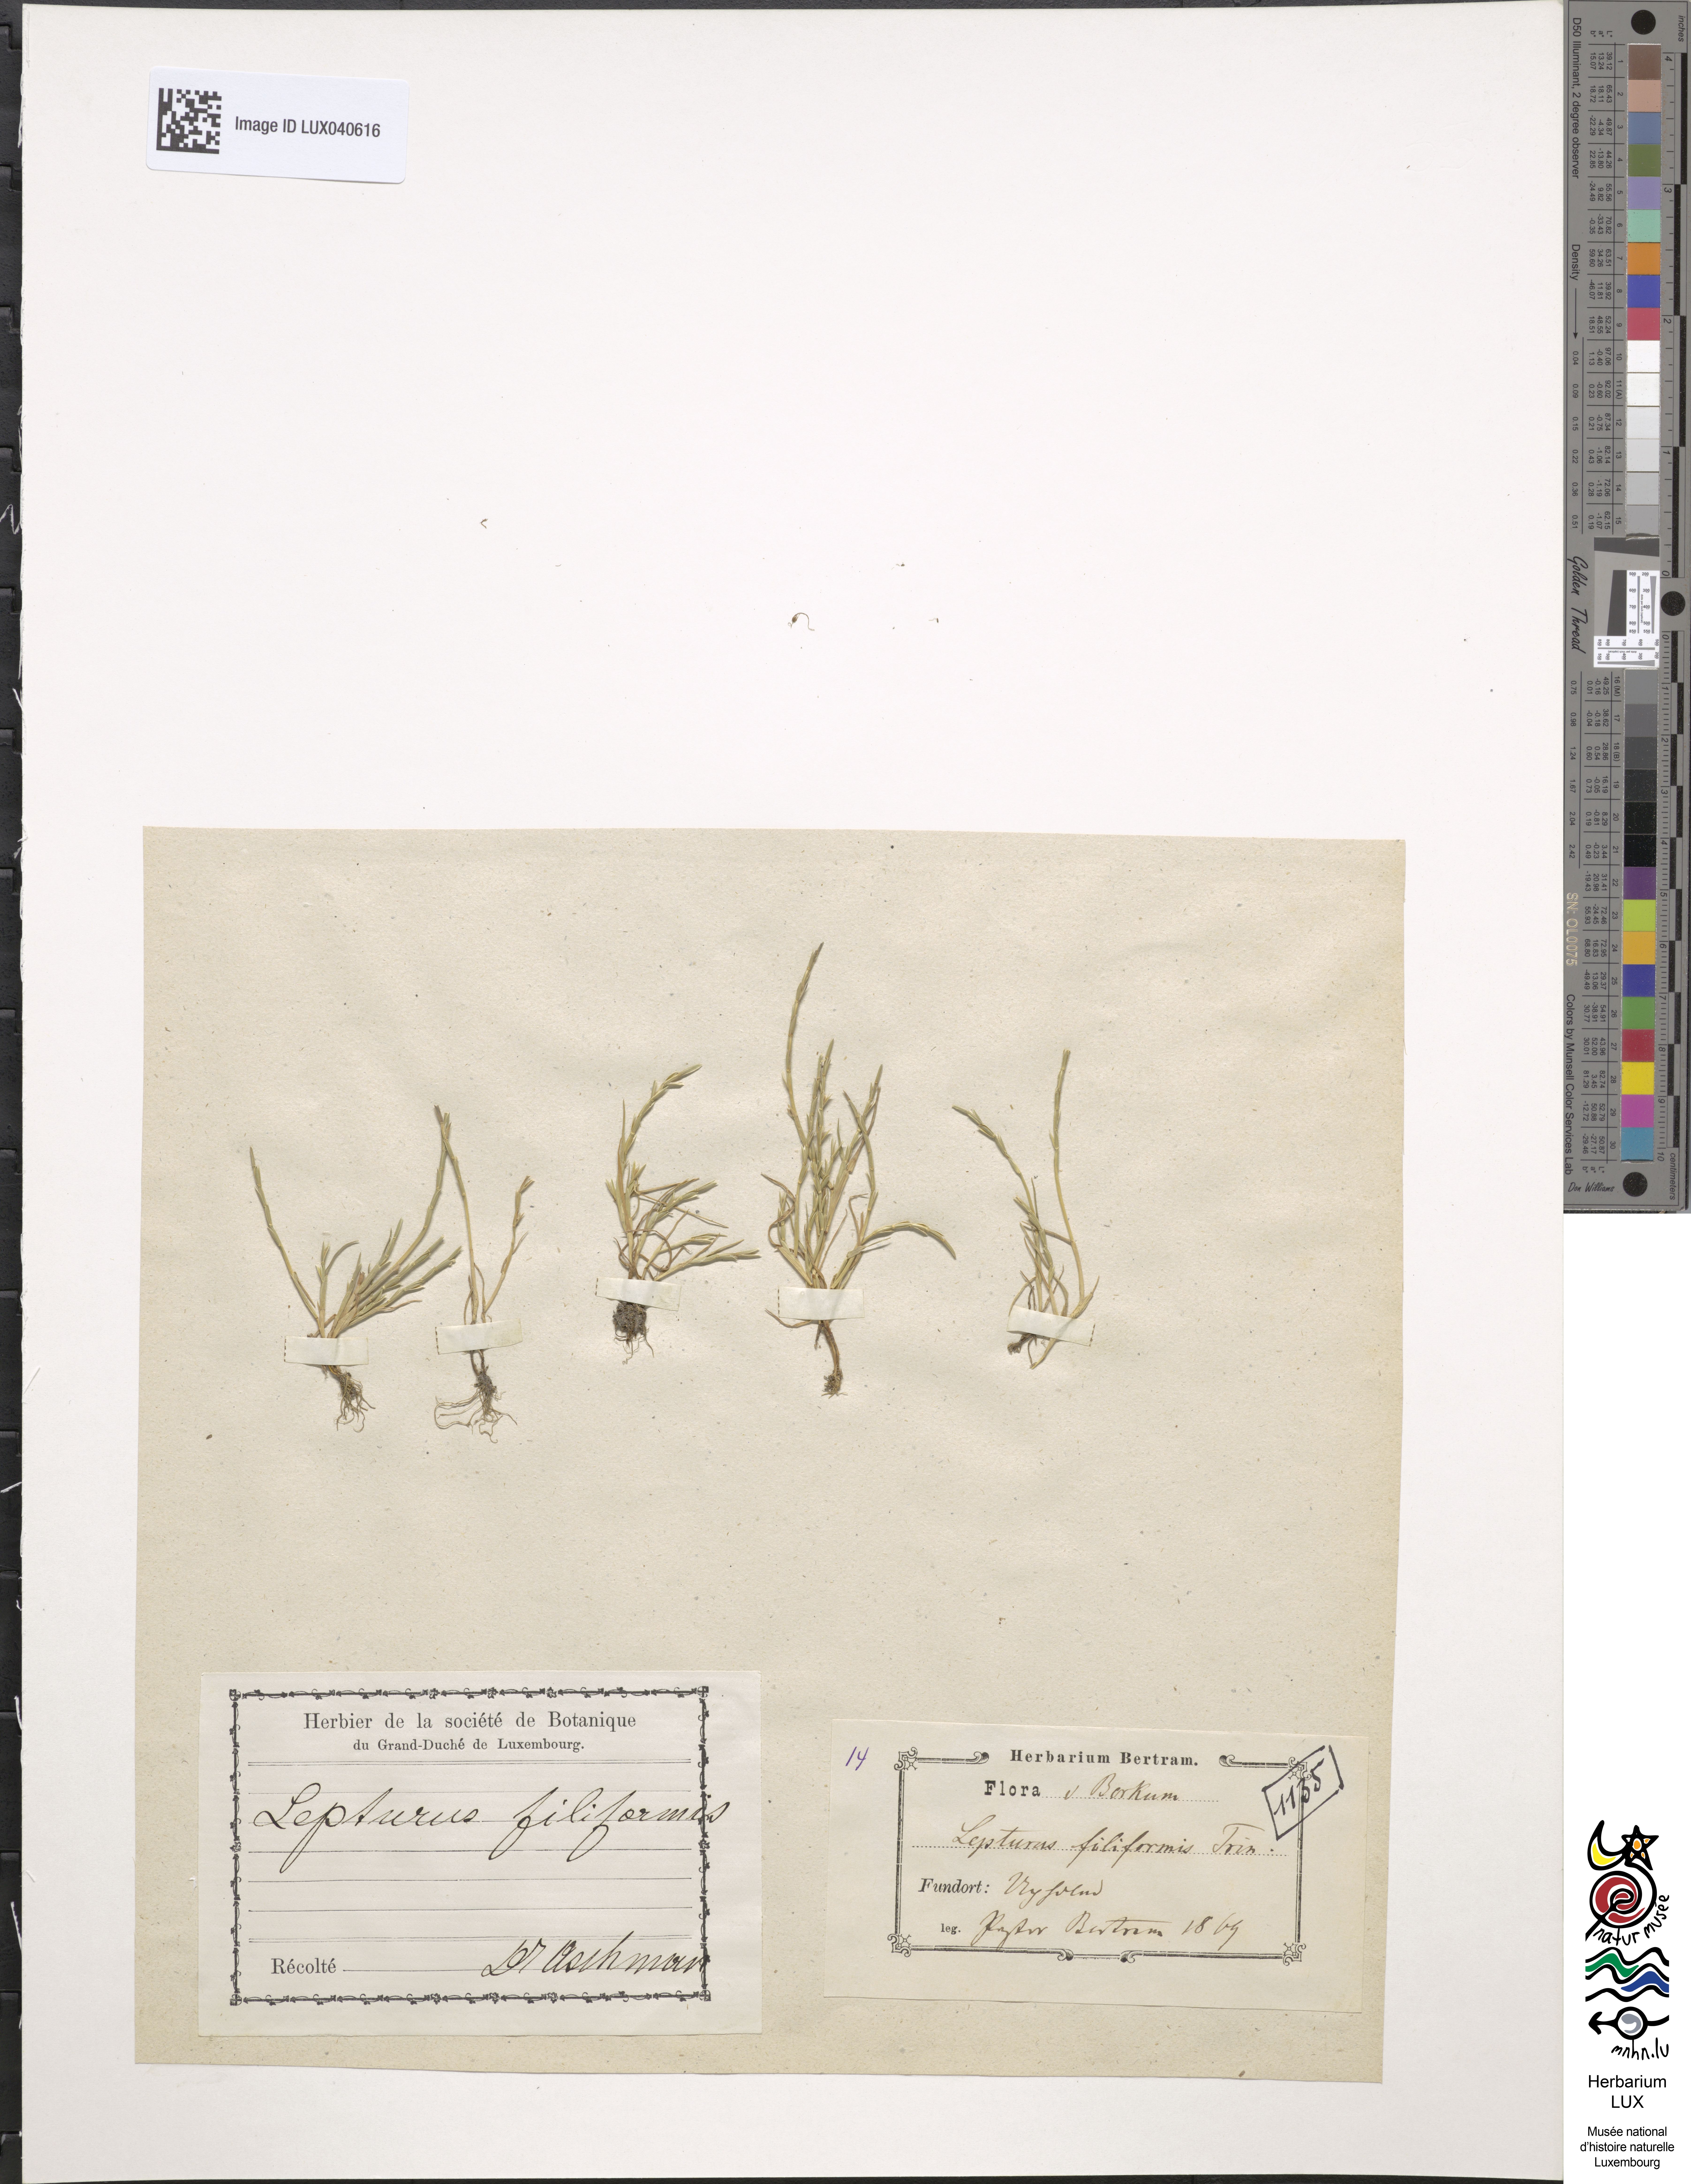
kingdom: Plantae
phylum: Tracheophyta
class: Liliopsida
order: Poales
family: Poaceae
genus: Parapholis
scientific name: Parapholis filiformis
